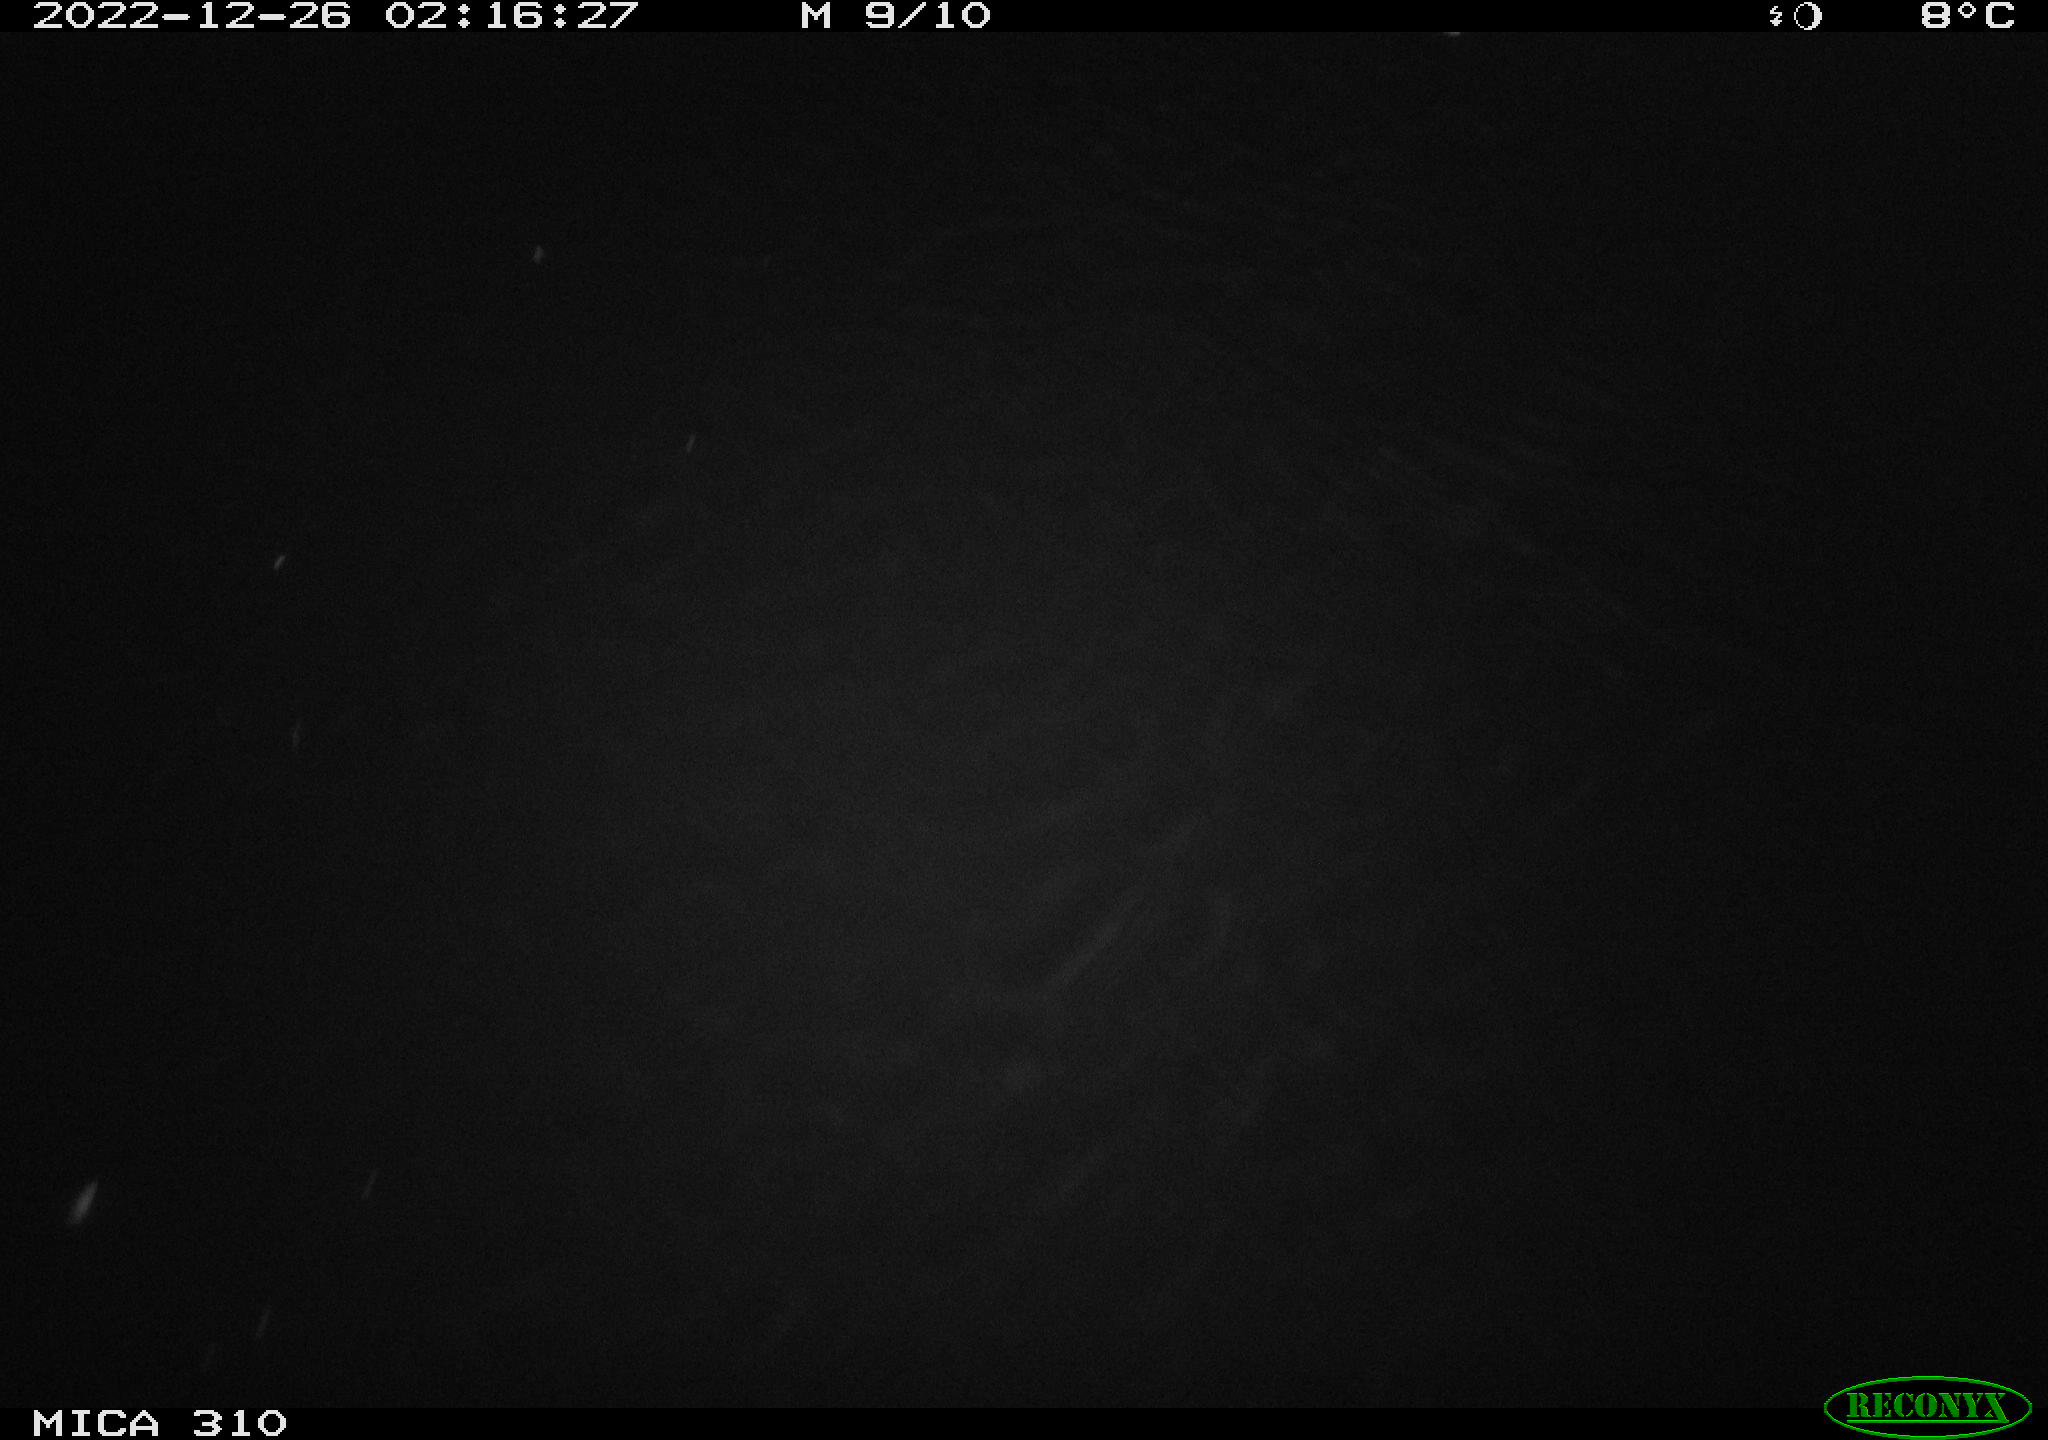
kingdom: Animalia
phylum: Chordata
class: Mammalia
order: Rodentia
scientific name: Rodentia
